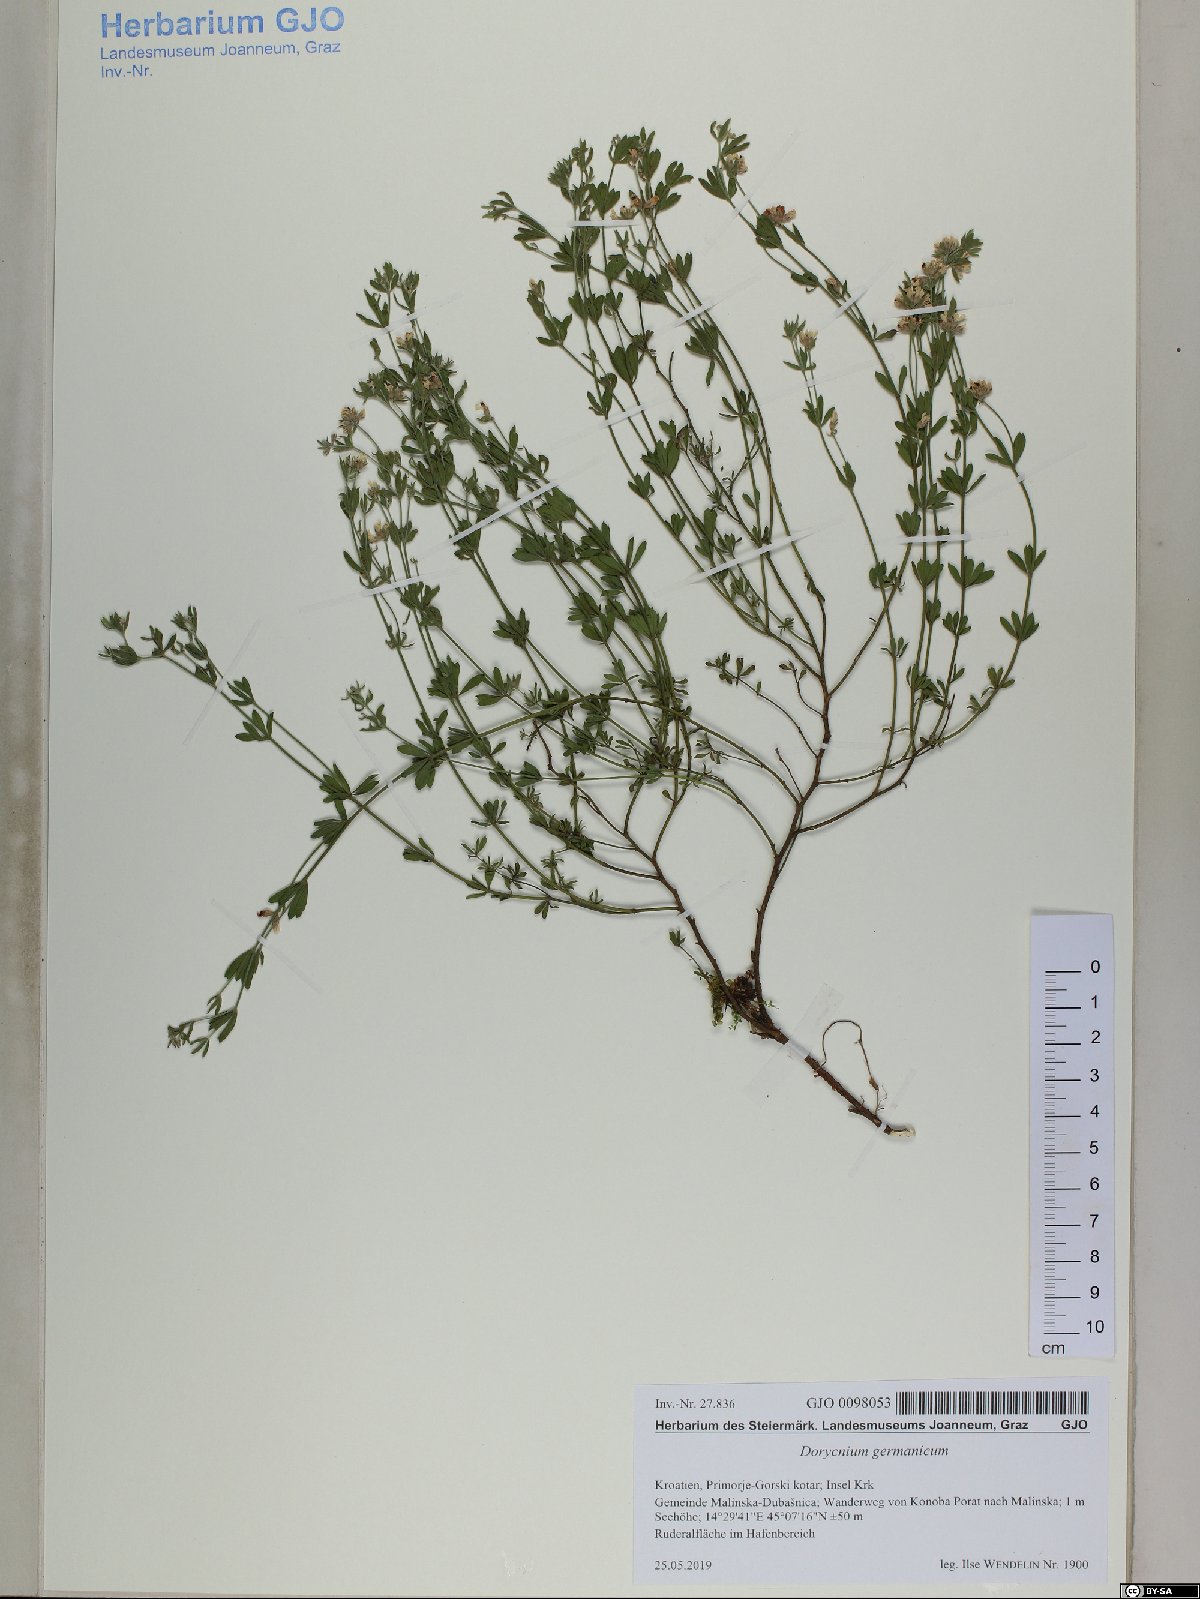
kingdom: Plantae
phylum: Tracheophyta
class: Magnoliopsida
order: Fabales
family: Fabaceae
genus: Lotus
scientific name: Lotus germanicus
